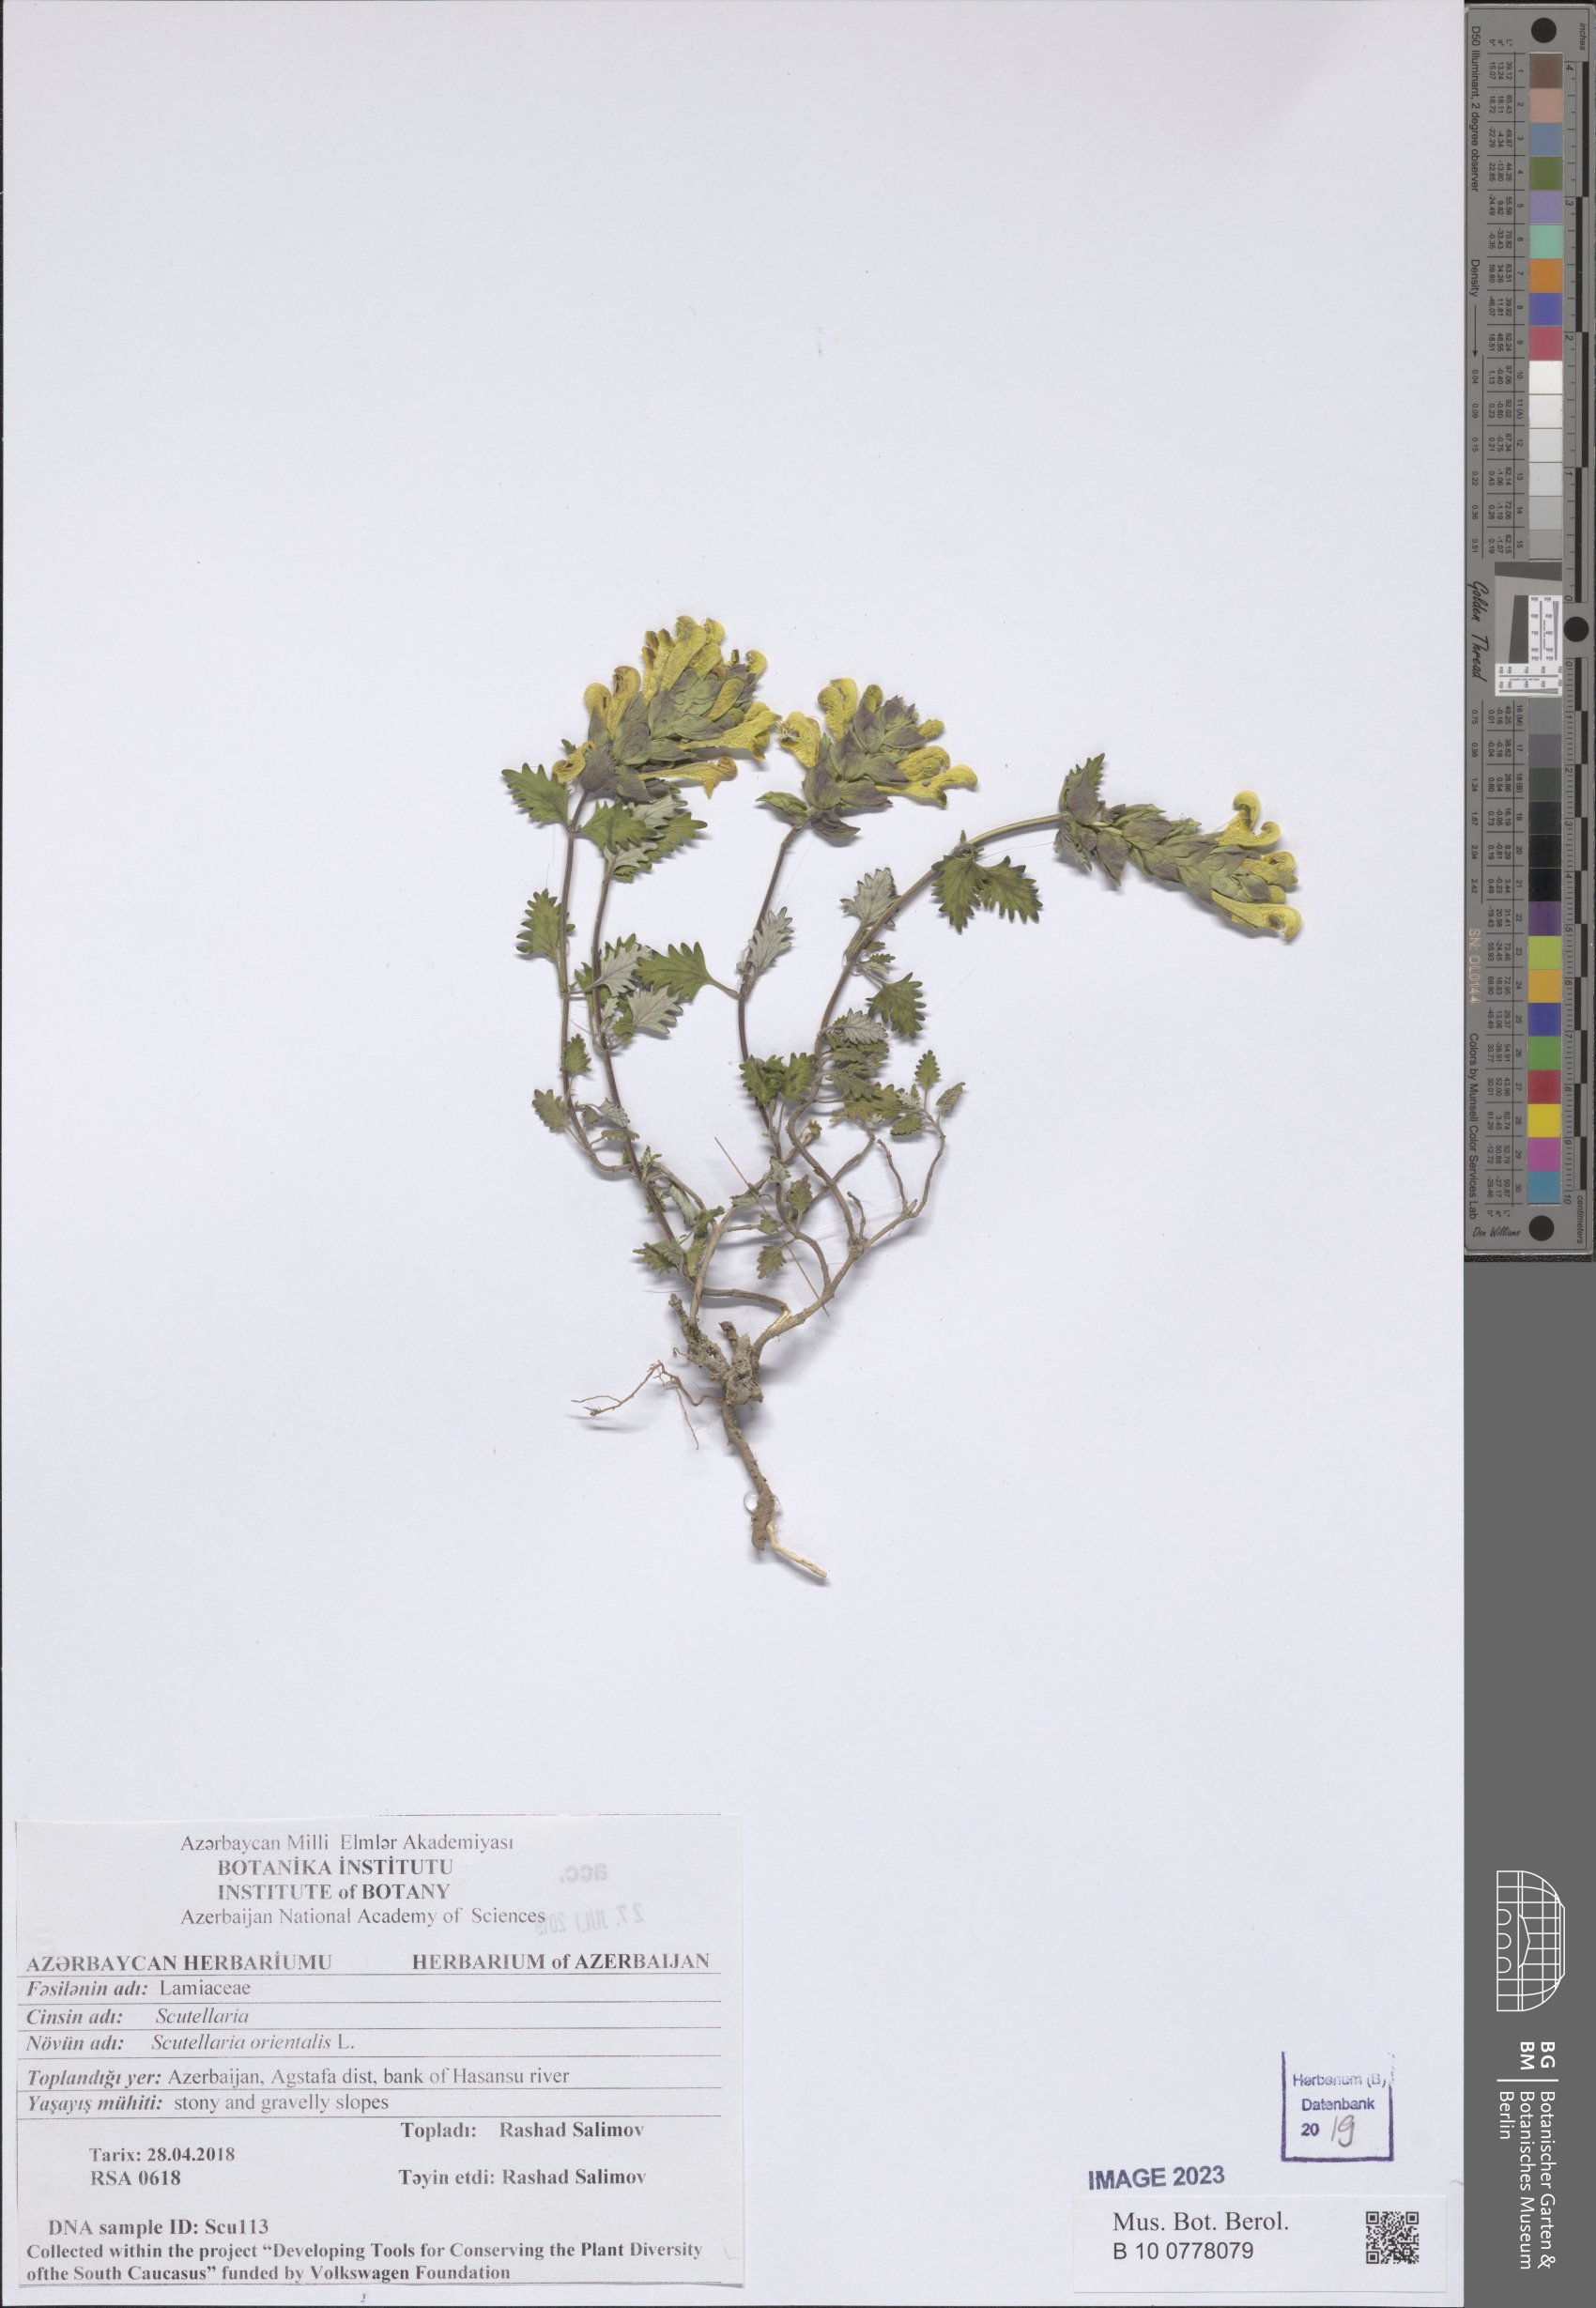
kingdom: Plantae
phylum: Tracheophyta
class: Magnoliopsida
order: Lamiales
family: Lamiaceae
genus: Scutellaria
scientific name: Scutellaria orientalis
